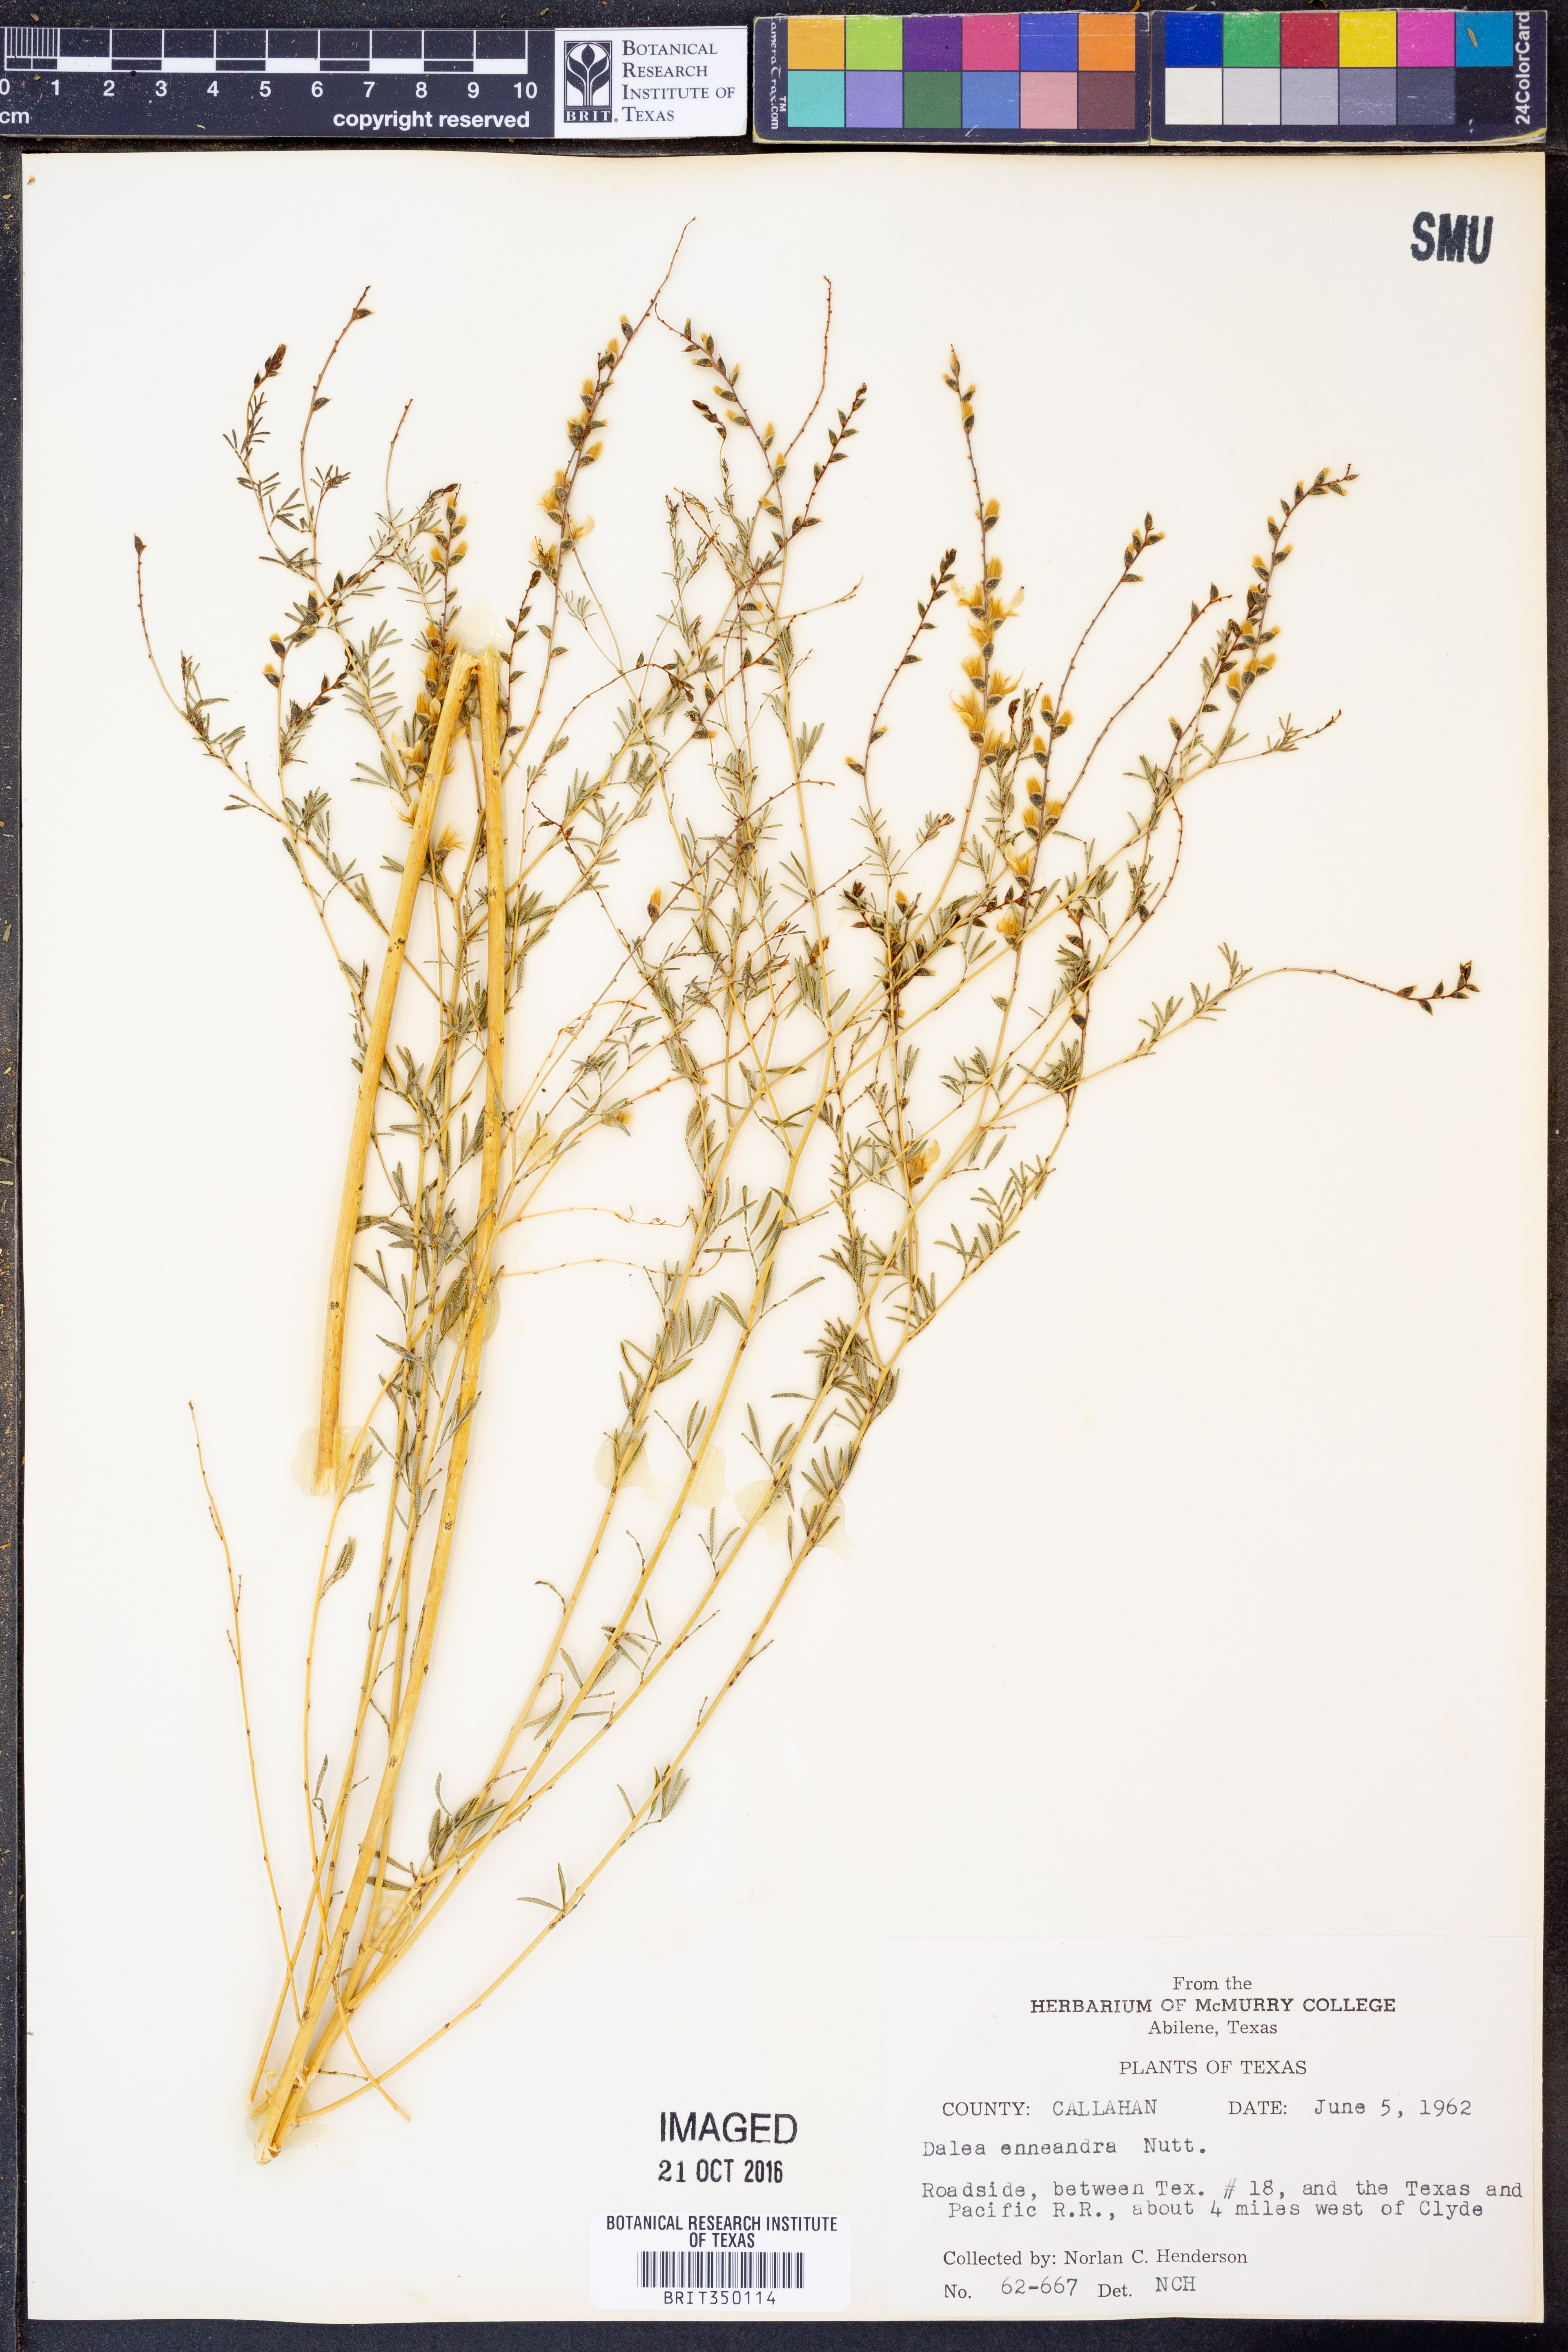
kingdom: Plantae
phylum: Tracheophyta
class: Magnoliopsida
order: Fabales
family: Fabaceae
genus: Dalea
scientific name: Dalea enneandra
